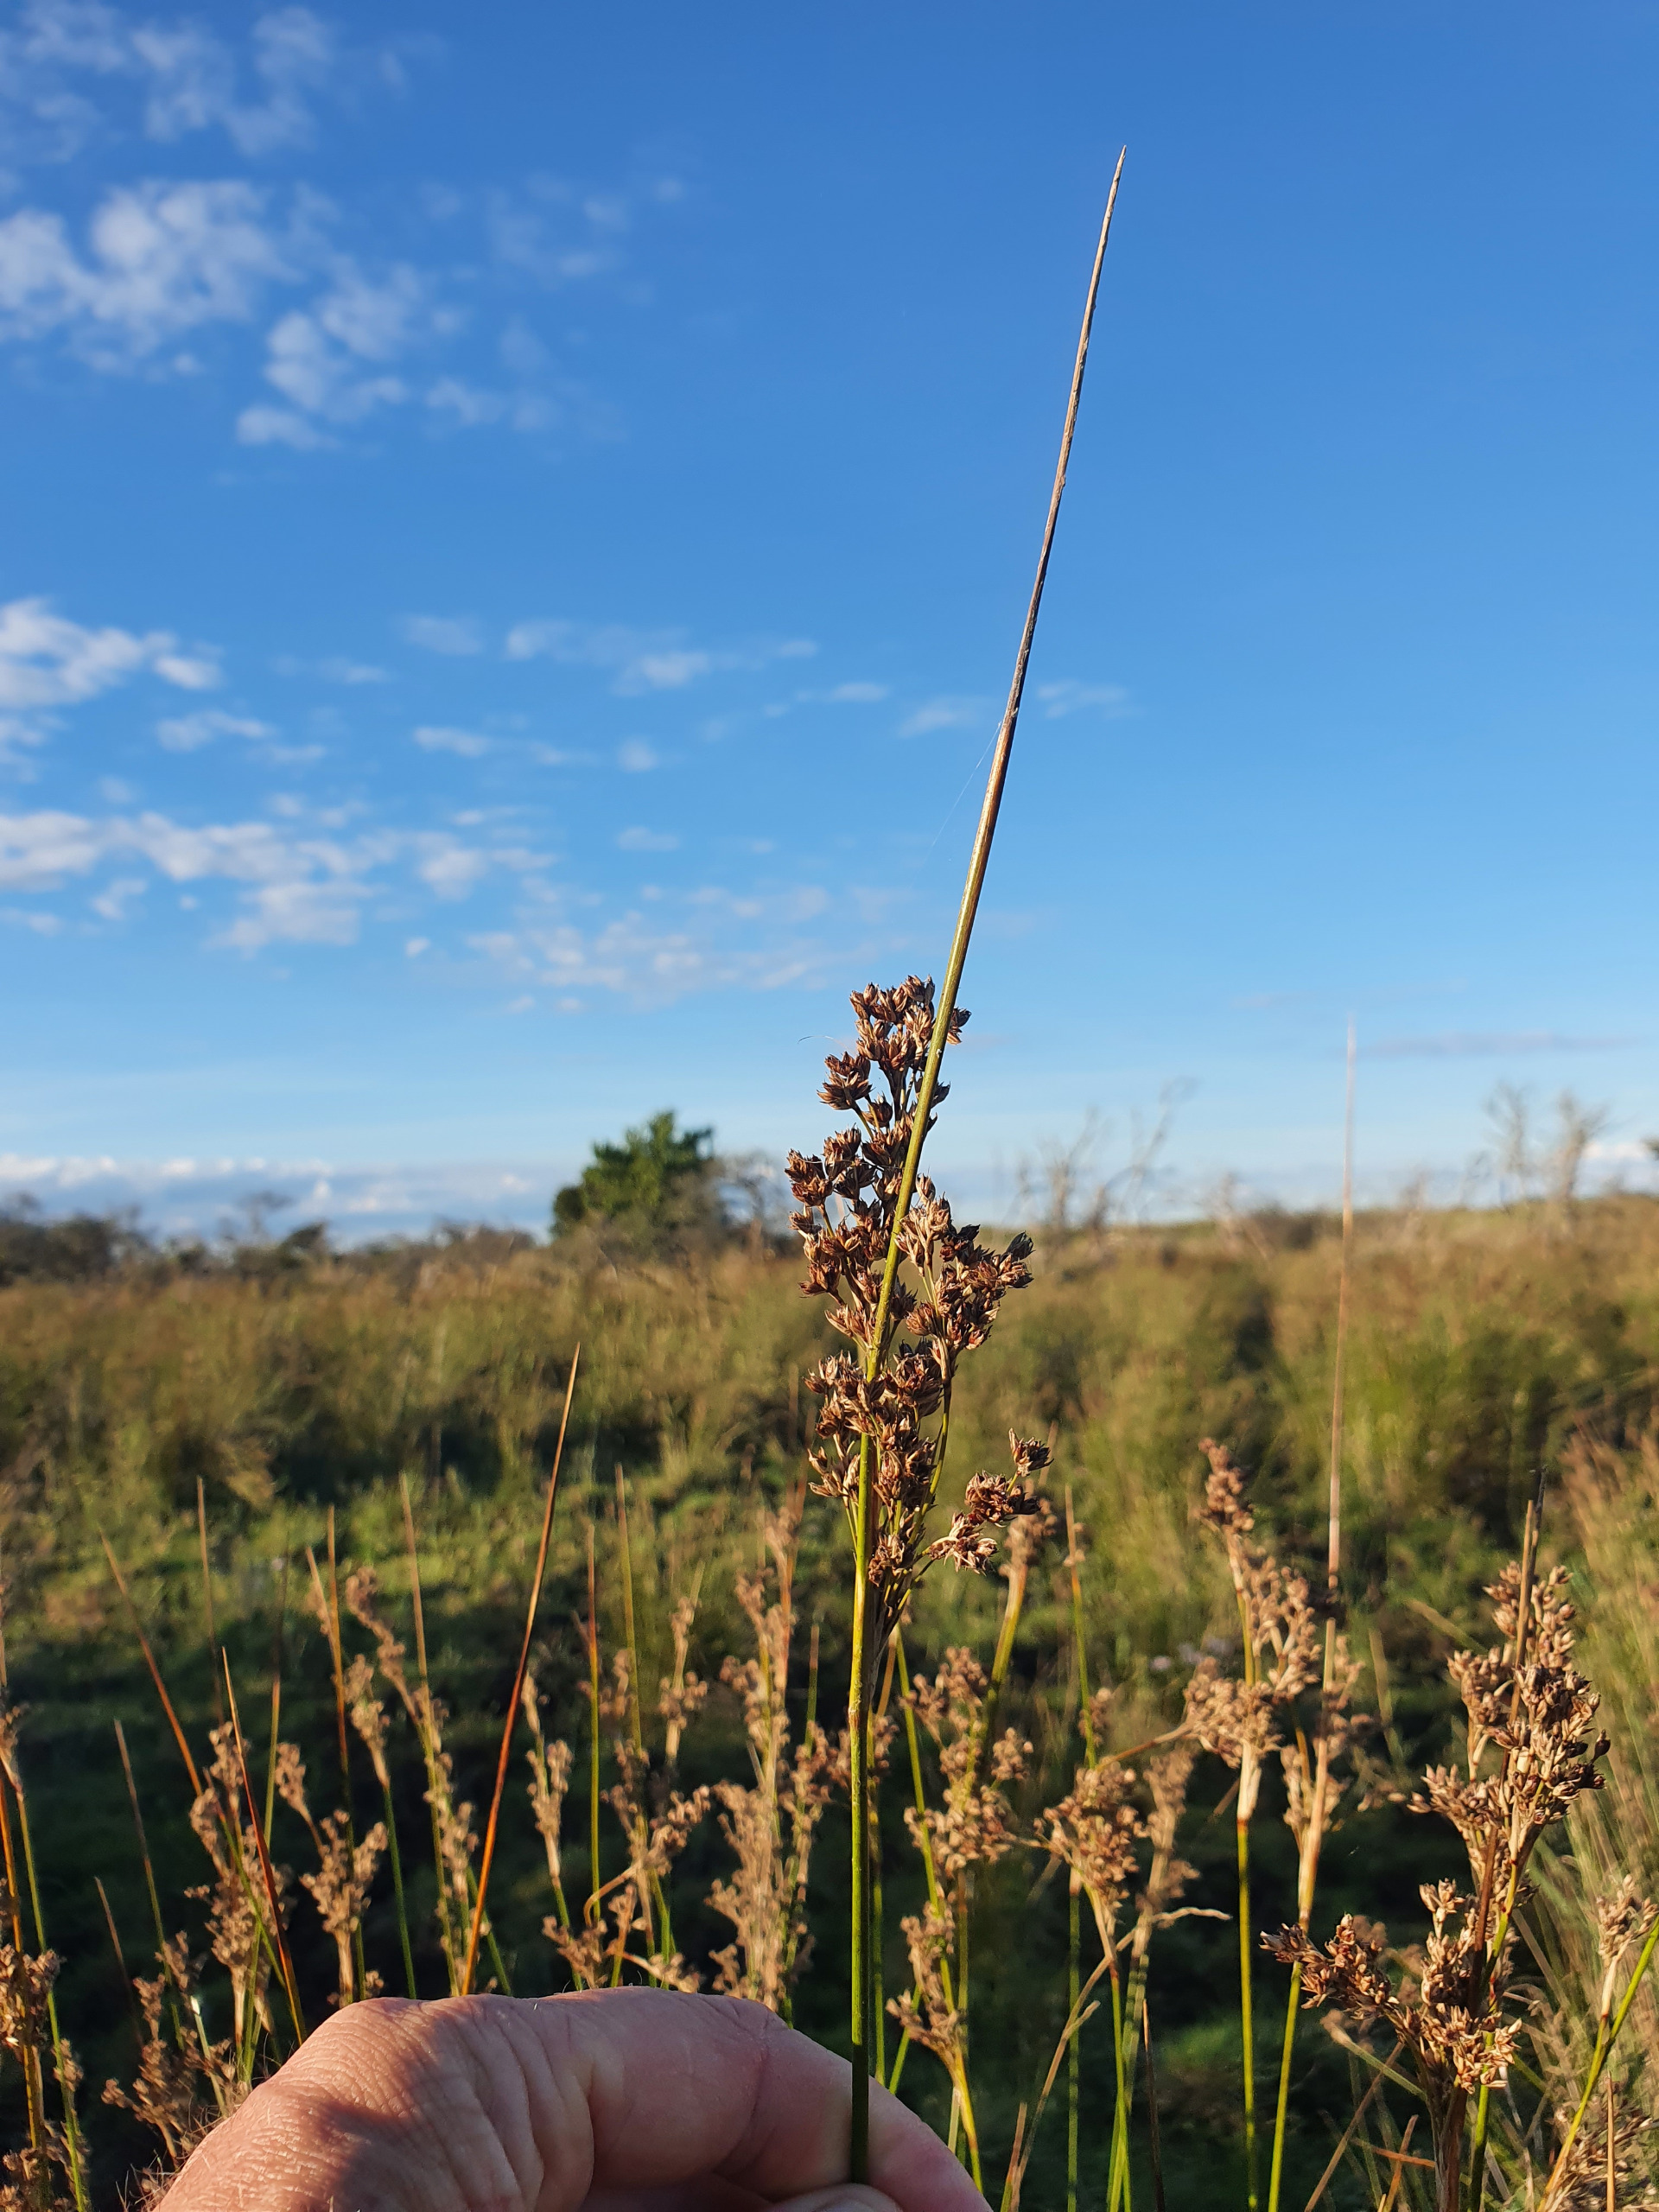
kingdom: Plantae
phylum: Tracheophyta
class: Liliopsida
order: Poales
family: Juncaceae
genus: Juncus
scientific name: Juncus maritimus
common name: Strand-siv
